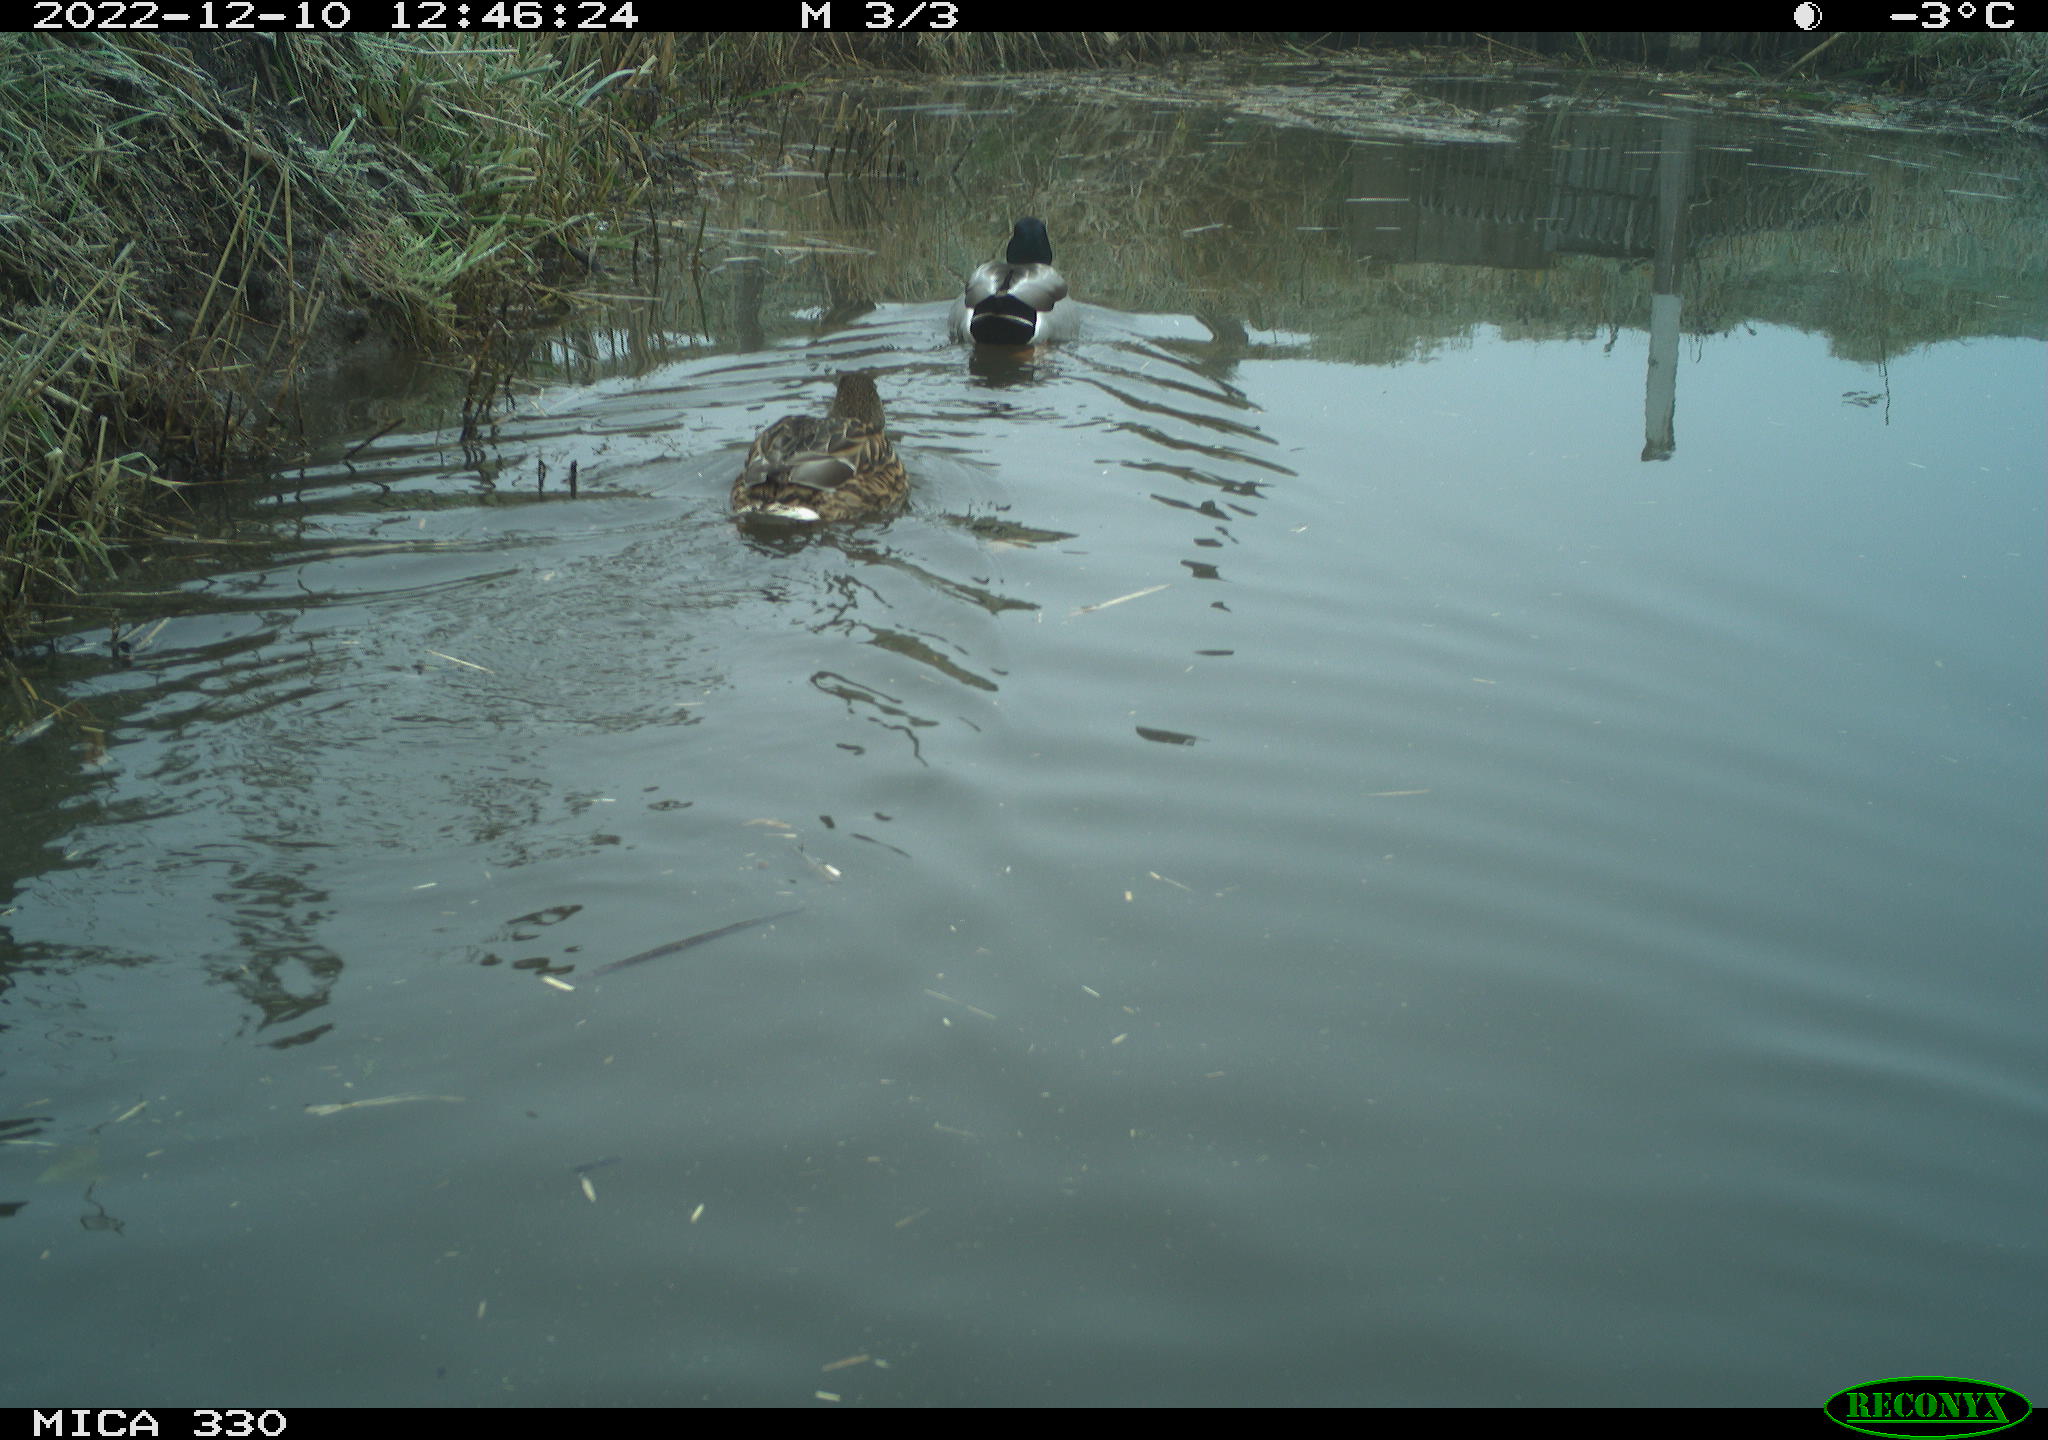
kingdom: Animalia
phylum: Chordata
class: Aves
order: Anseriformes
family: Anatidae
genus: Anas
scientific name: Anas
